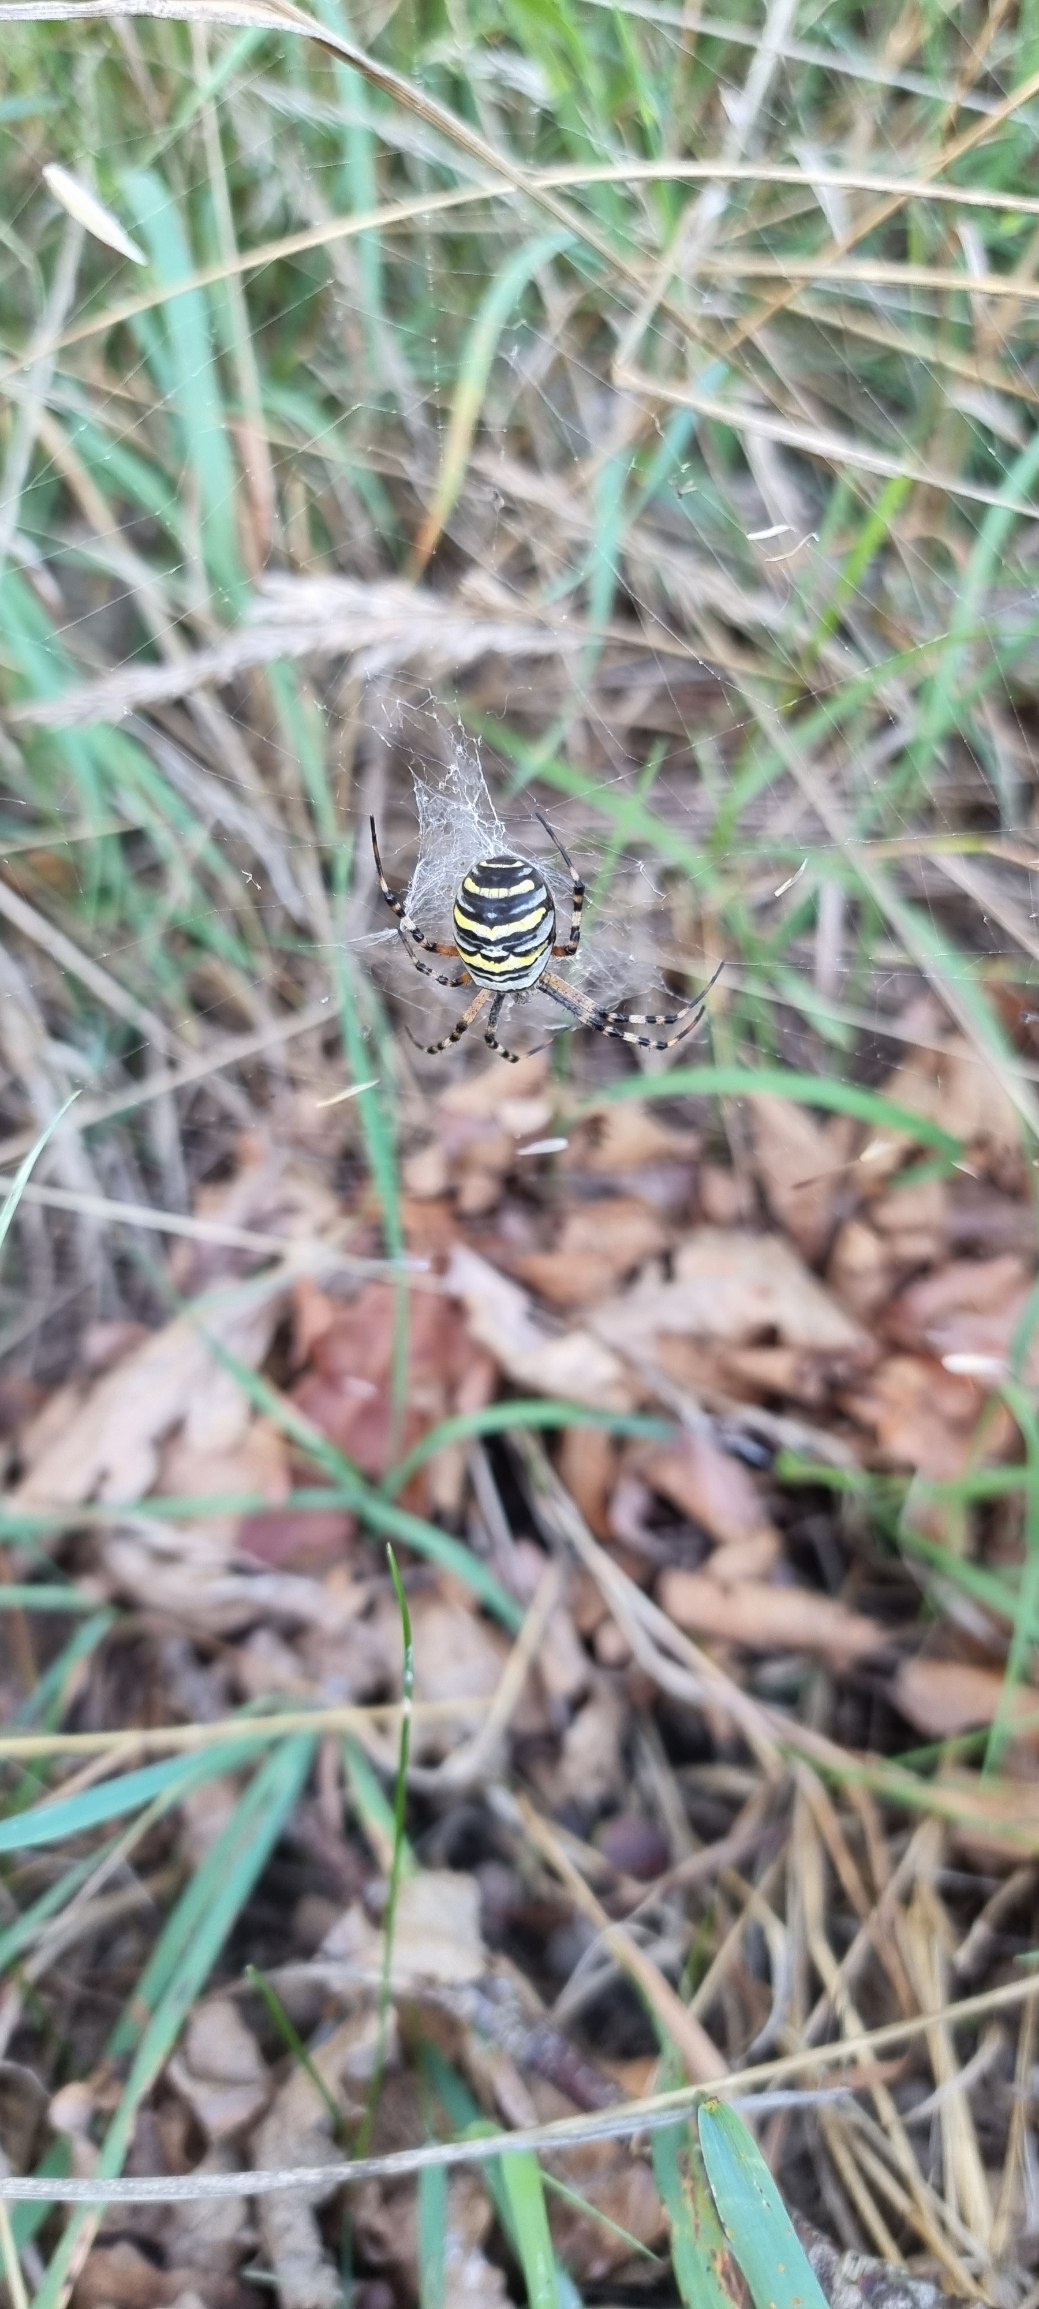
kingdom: Animalia
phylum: Arthropoda
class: Arachnida
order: Araneae
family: Araneidae
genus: Argiope
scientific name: Argiope bruennichi
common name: Hvepseedderkop
